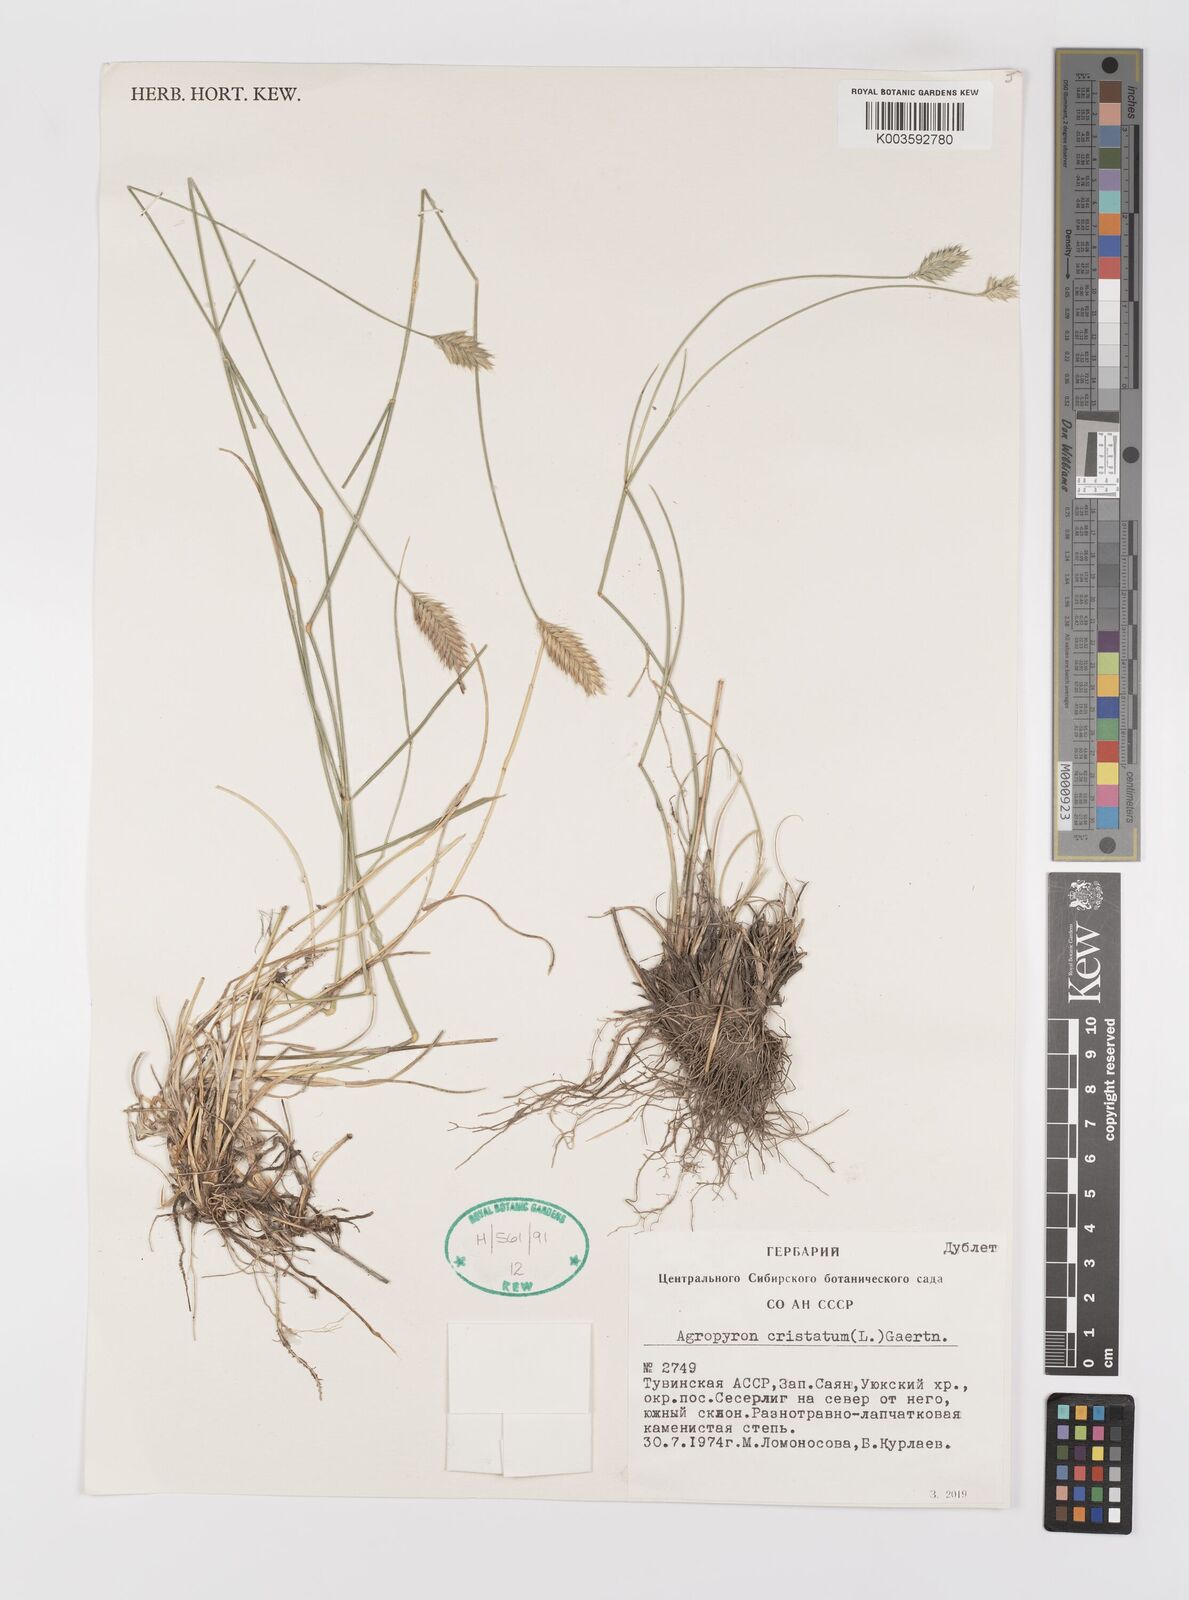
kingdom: Plantae
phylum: Tracheophyta
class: Liliopsida
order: Poales
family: Poaceae
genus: Agropyron
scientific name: Agropyron cristatum
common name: Crested wheatgrass
